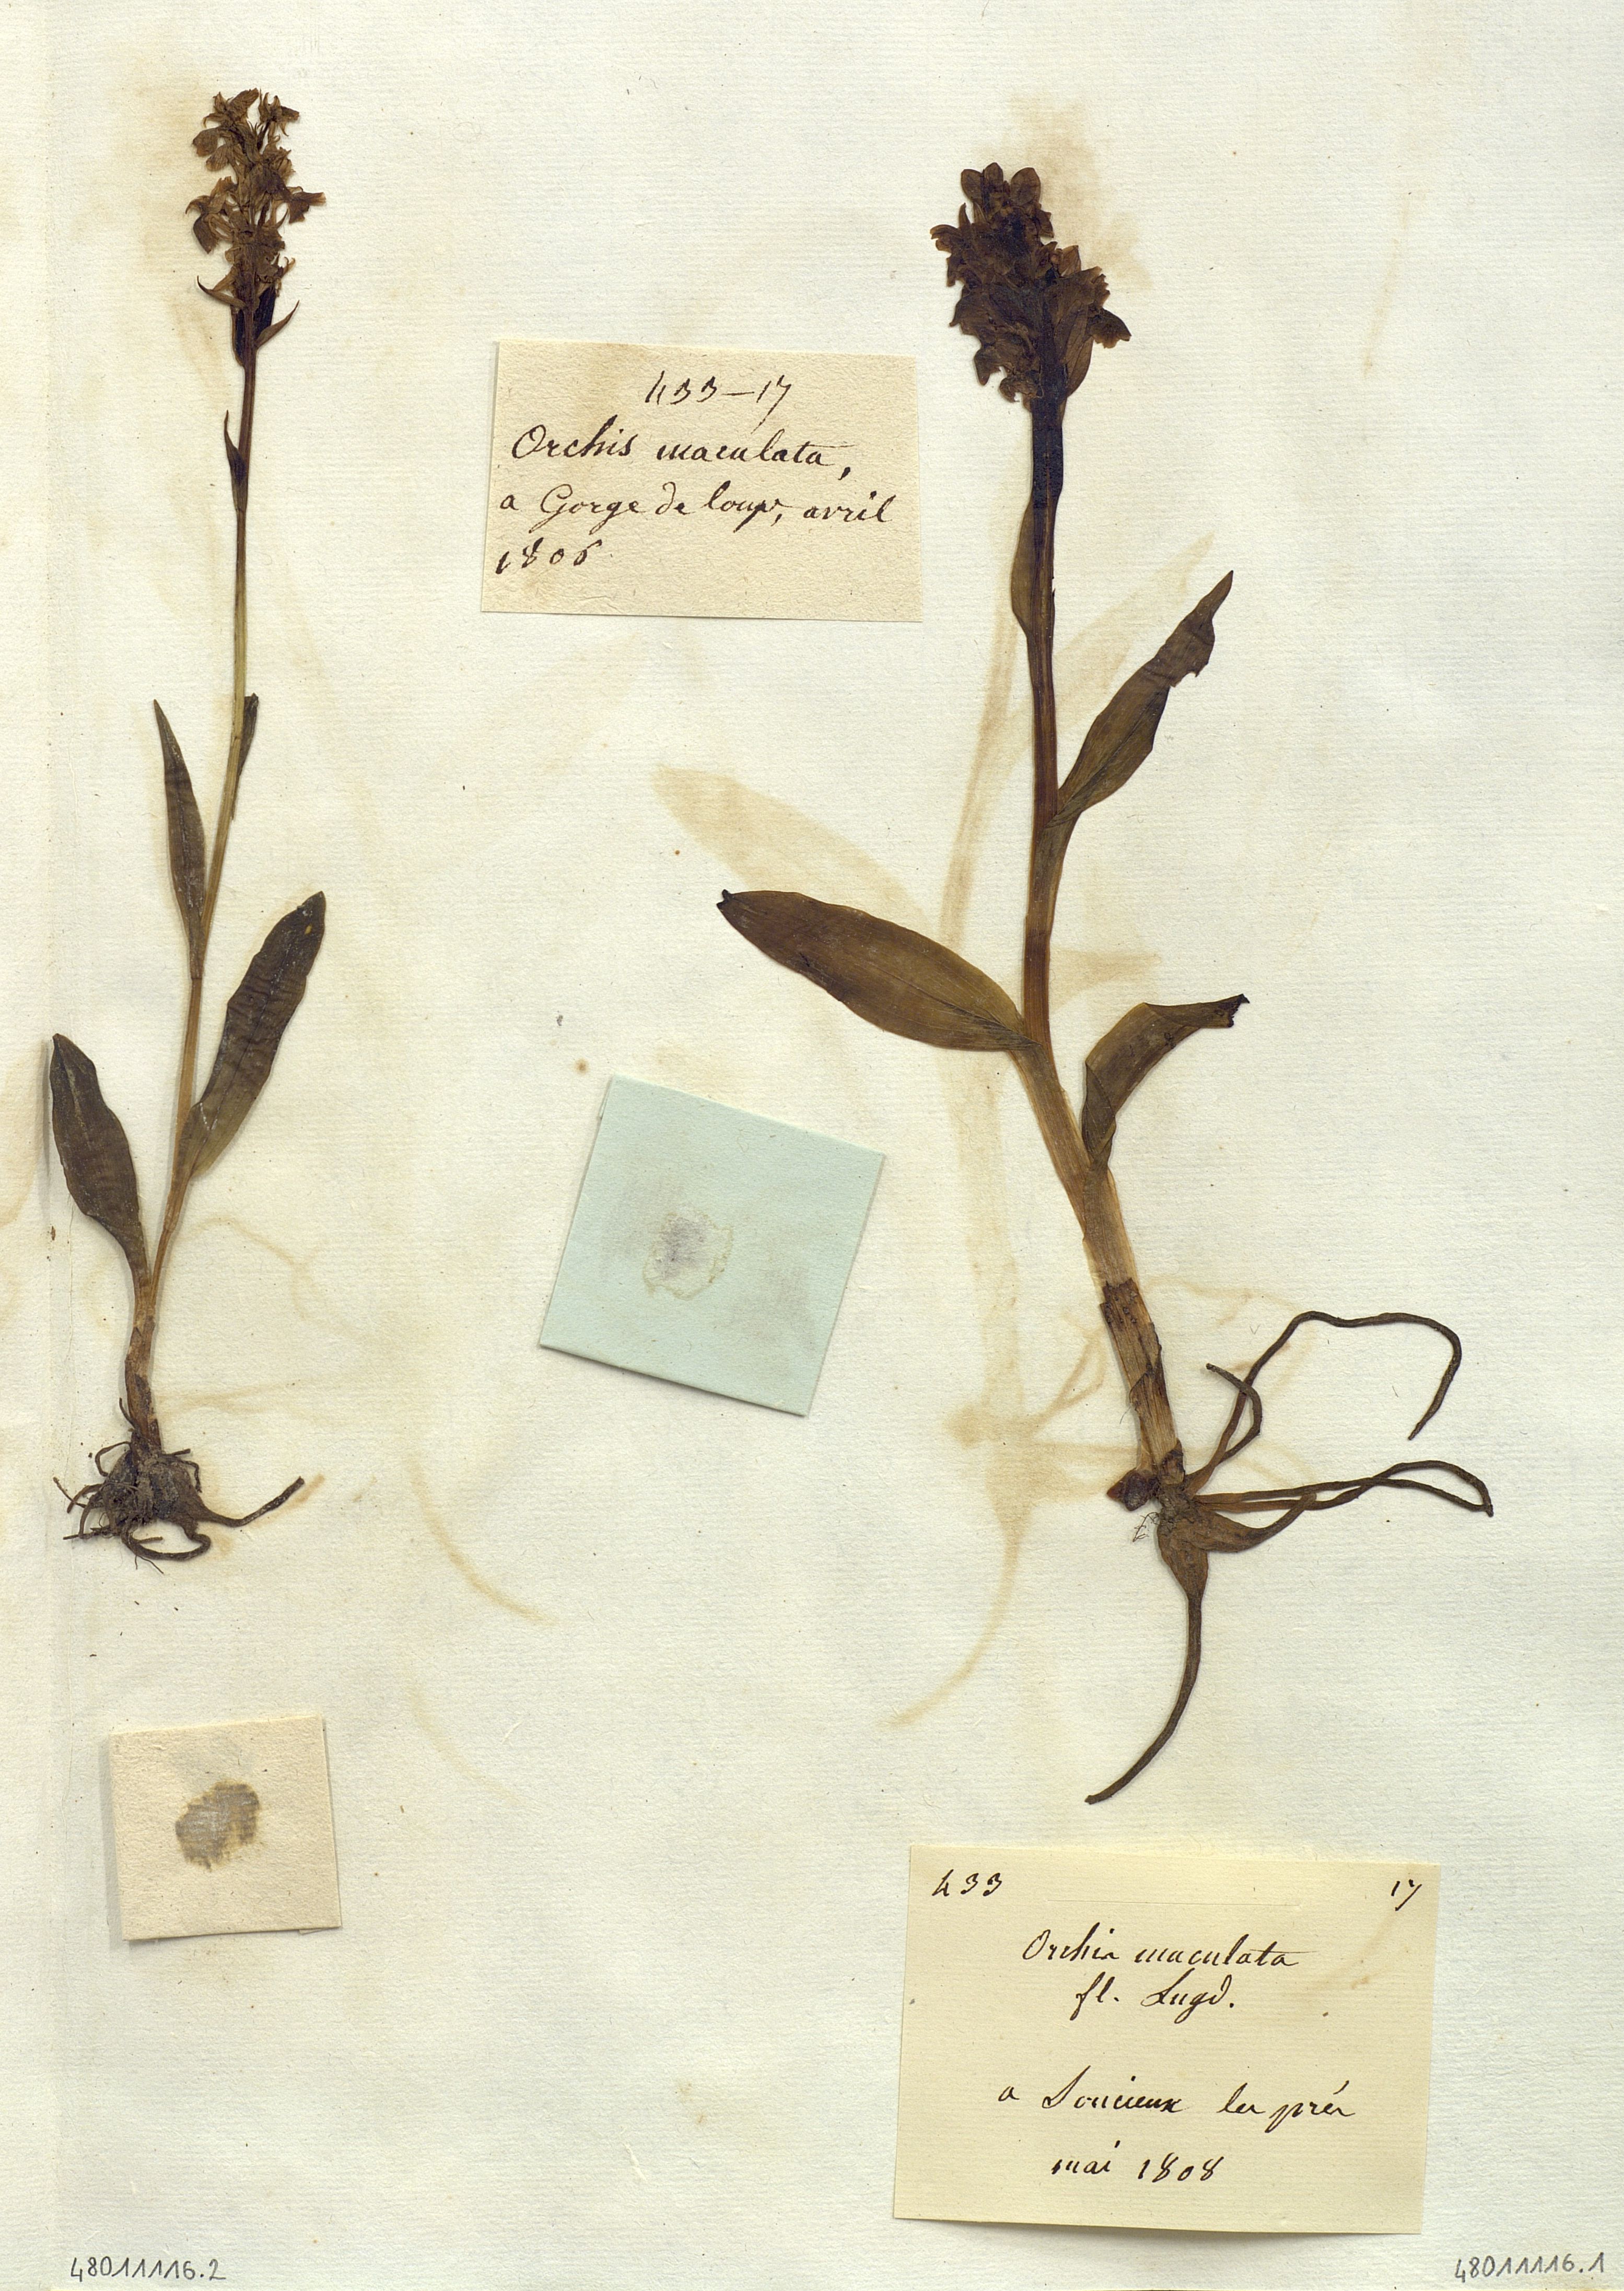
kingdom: Plantae
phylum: Tracheophyta
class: Liliopsida
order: Asparagales
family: Orchidaceae
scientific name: Orchidaceae
